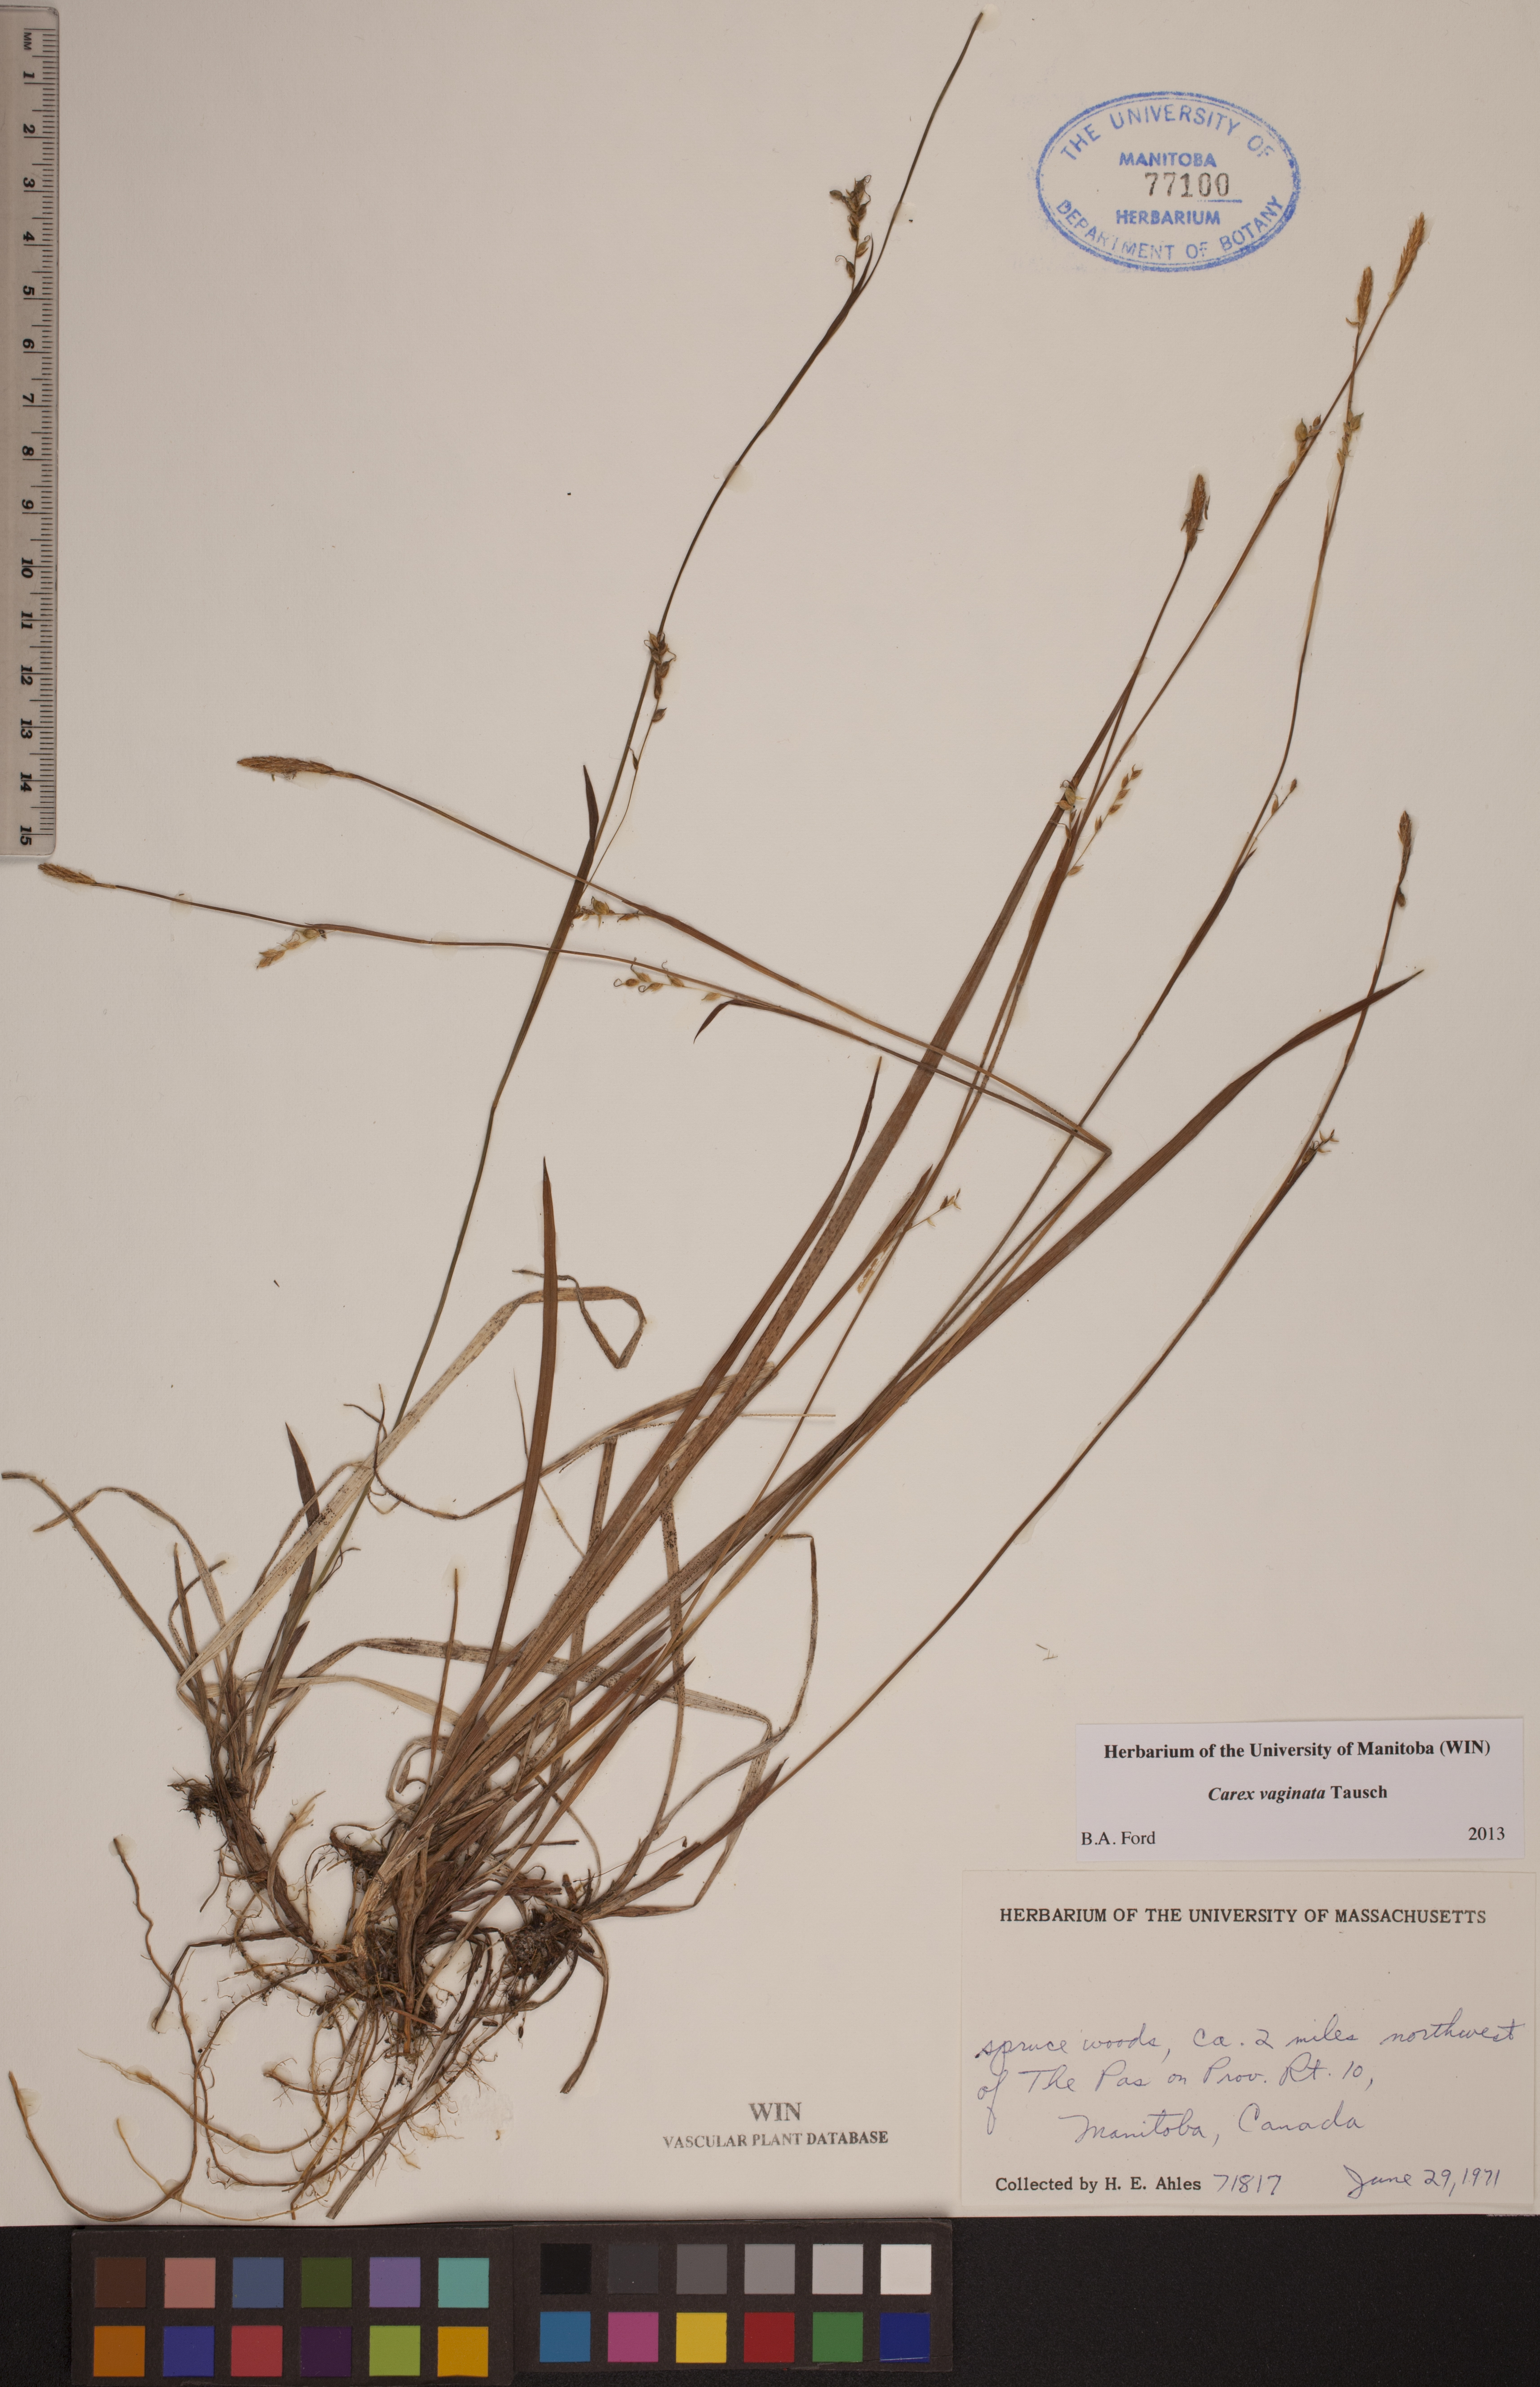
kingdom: Plantae
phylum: Tracheophyta
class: Liliopsida
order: Poales
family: Cyperaceae
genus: Carex
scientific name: Carex vaginata
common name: Sheathed sedge
